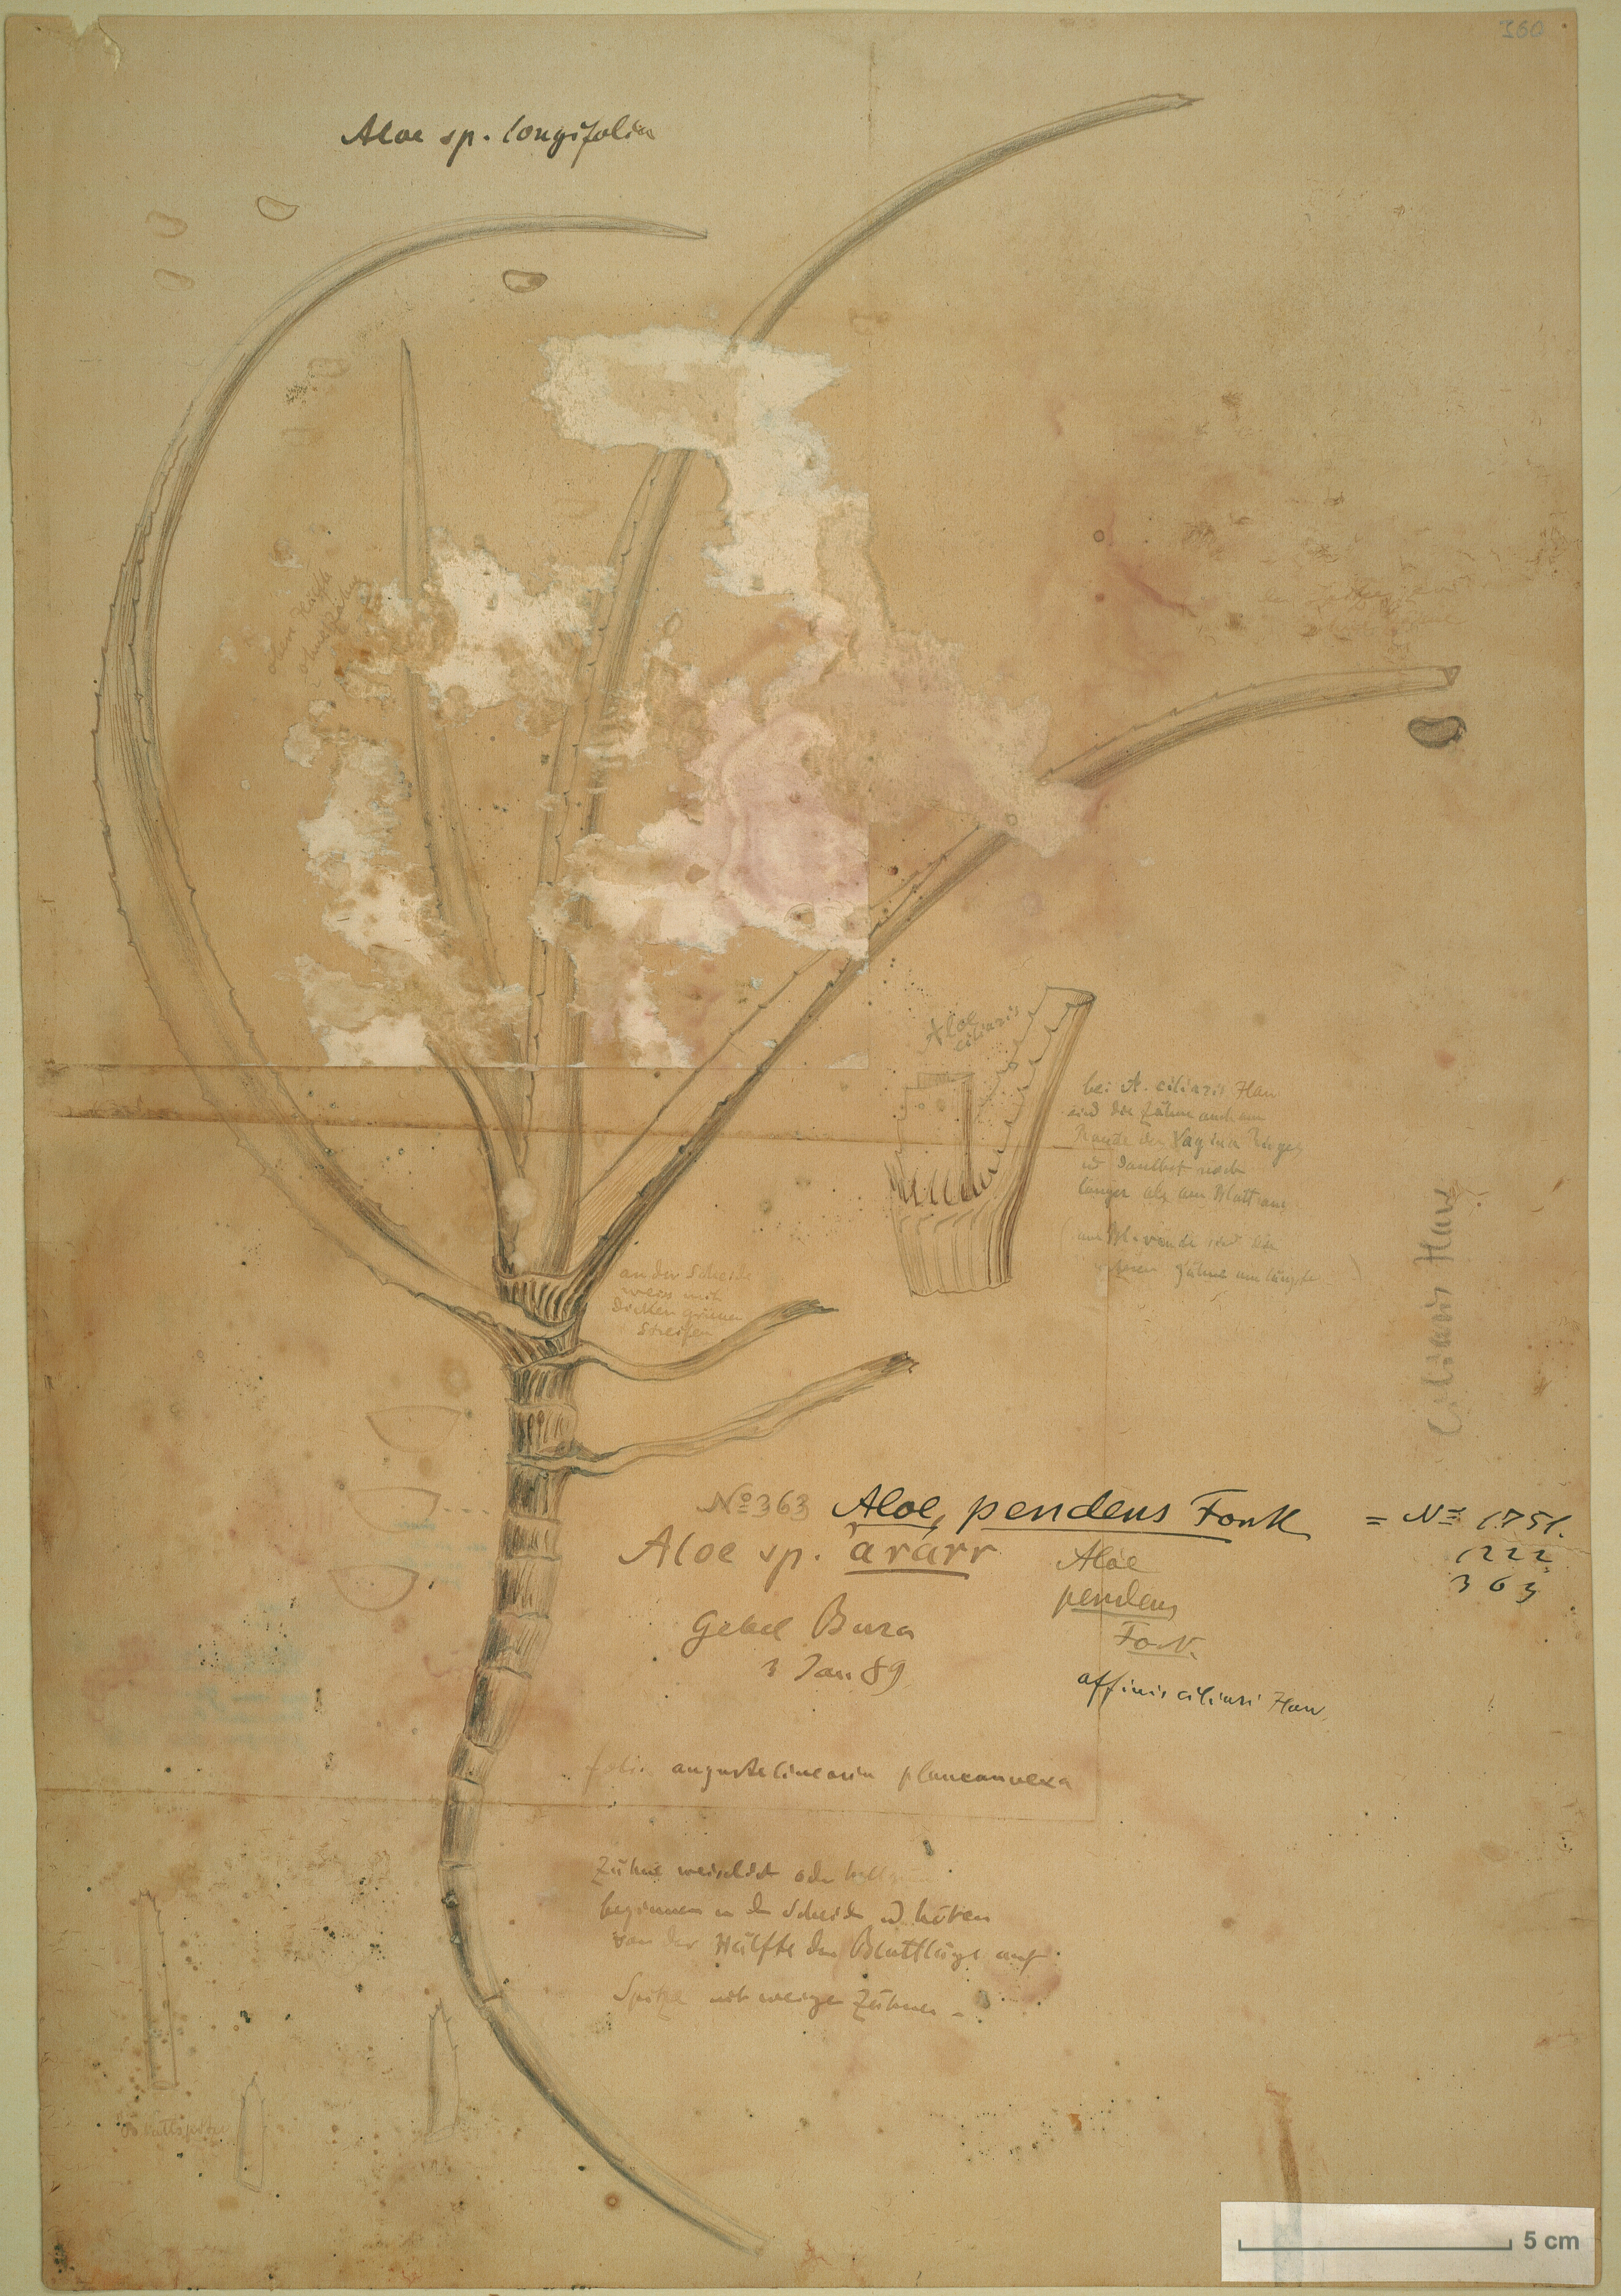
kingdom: Plantae
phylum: Tracheophyta
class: Liliopsida
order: Asparagales
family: Asphodelaceae
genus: Aloe
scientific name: Aloe pendens
